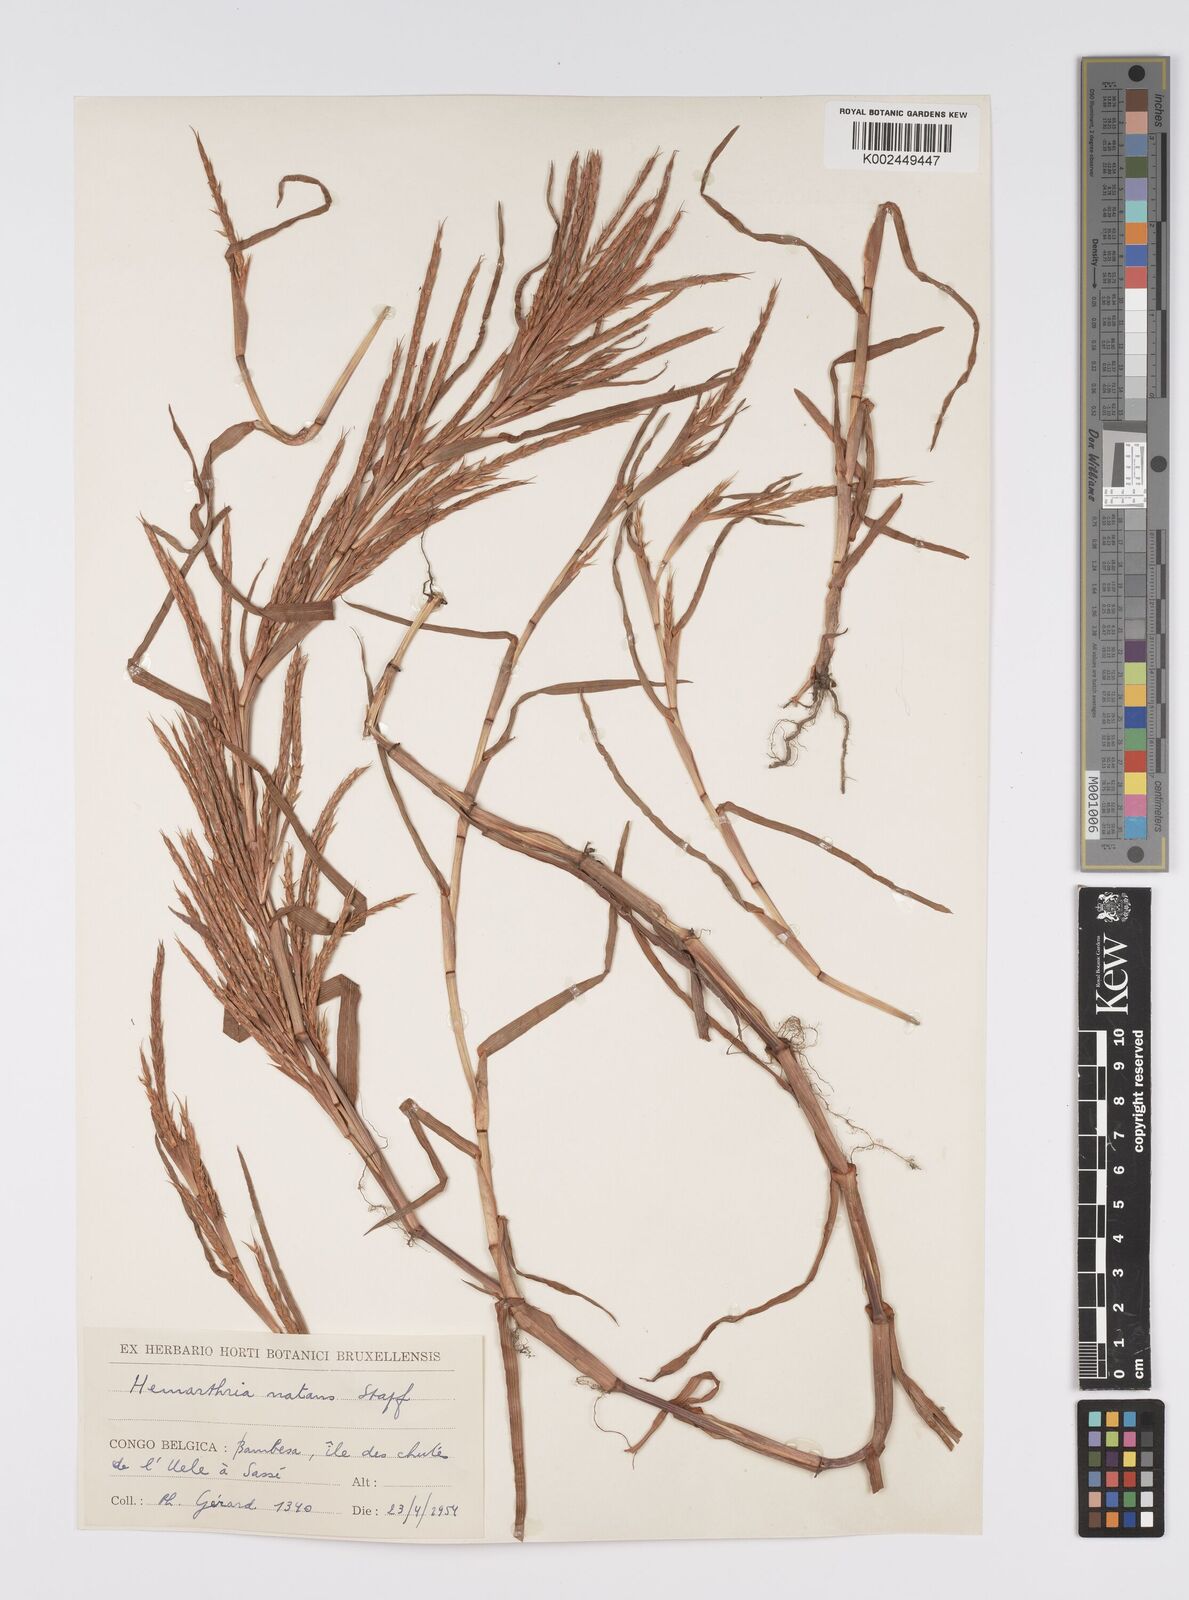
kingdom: Plantae
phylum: Tracheophyta
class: Liliopsida
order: Poales
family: Poaceae
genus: Hemarthria
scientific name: Hemarthria natans
